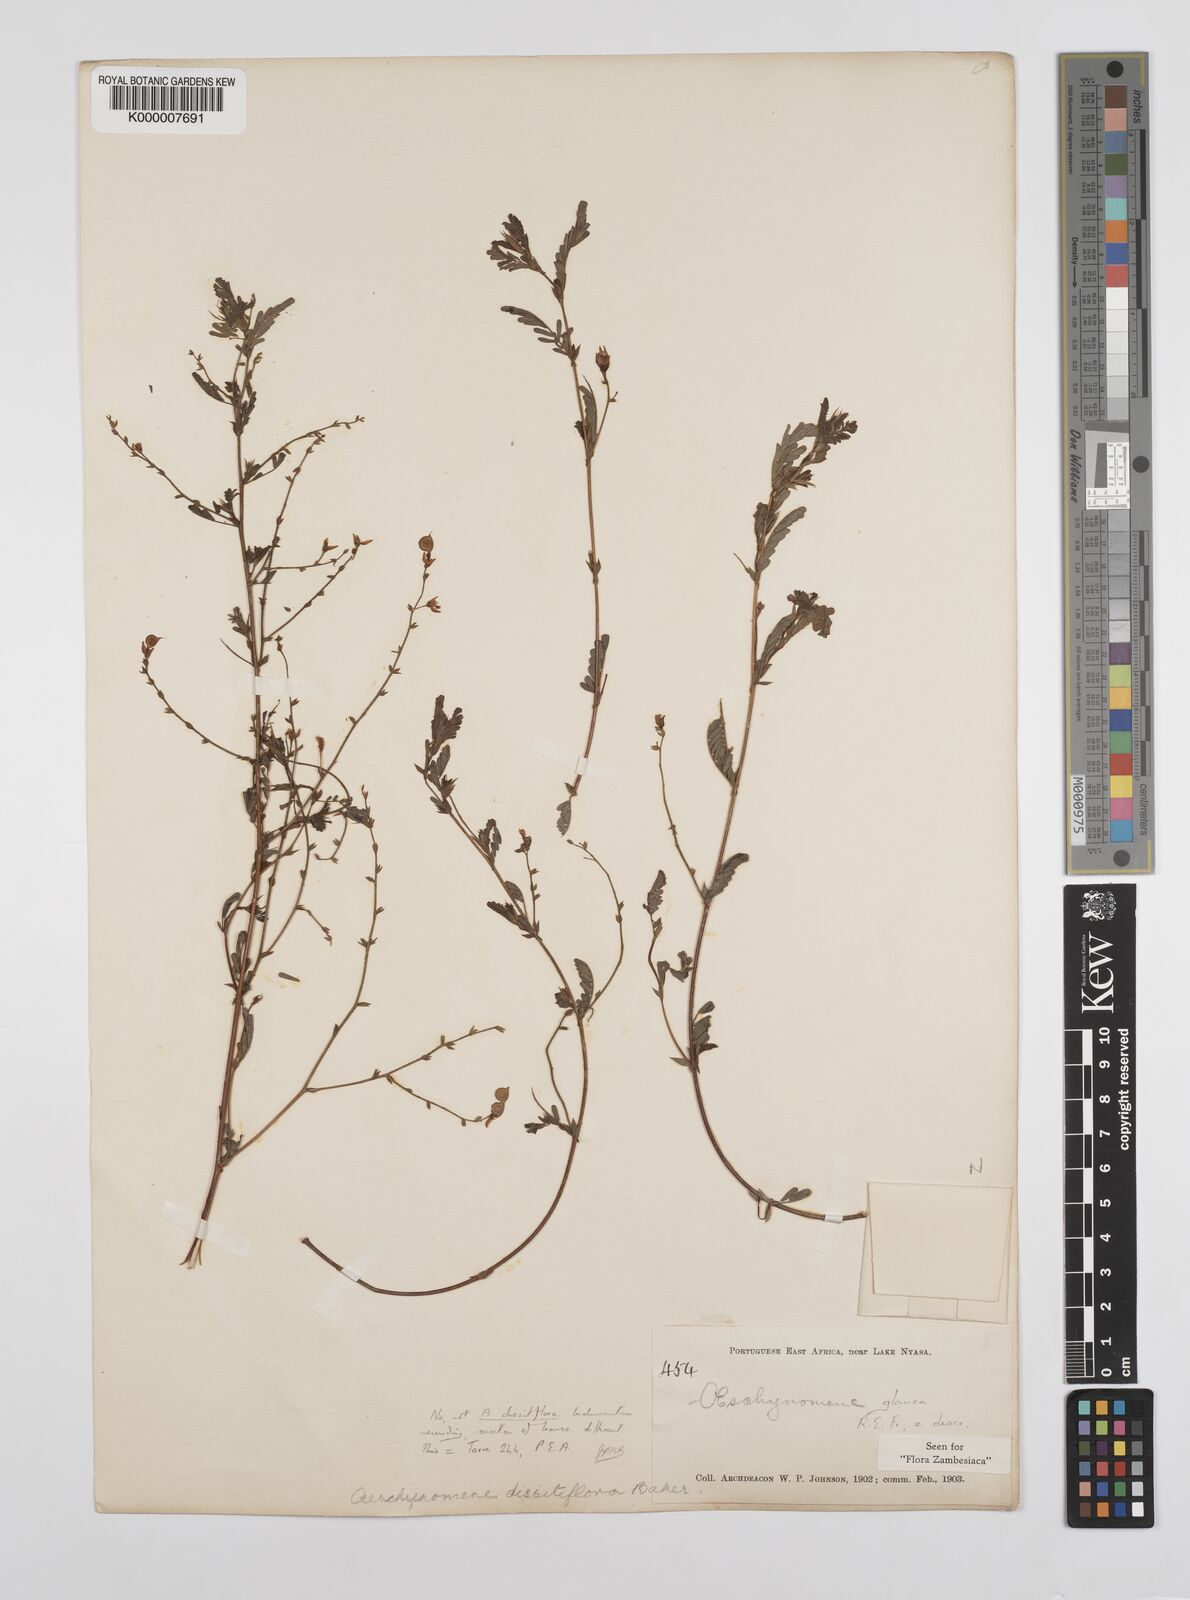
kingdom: Plantae
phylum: Tracheophyta
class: Magnoliopsida
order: Fabales
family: Fabaceae
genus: Aeschynomene
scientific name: Aeschynomene glauca
